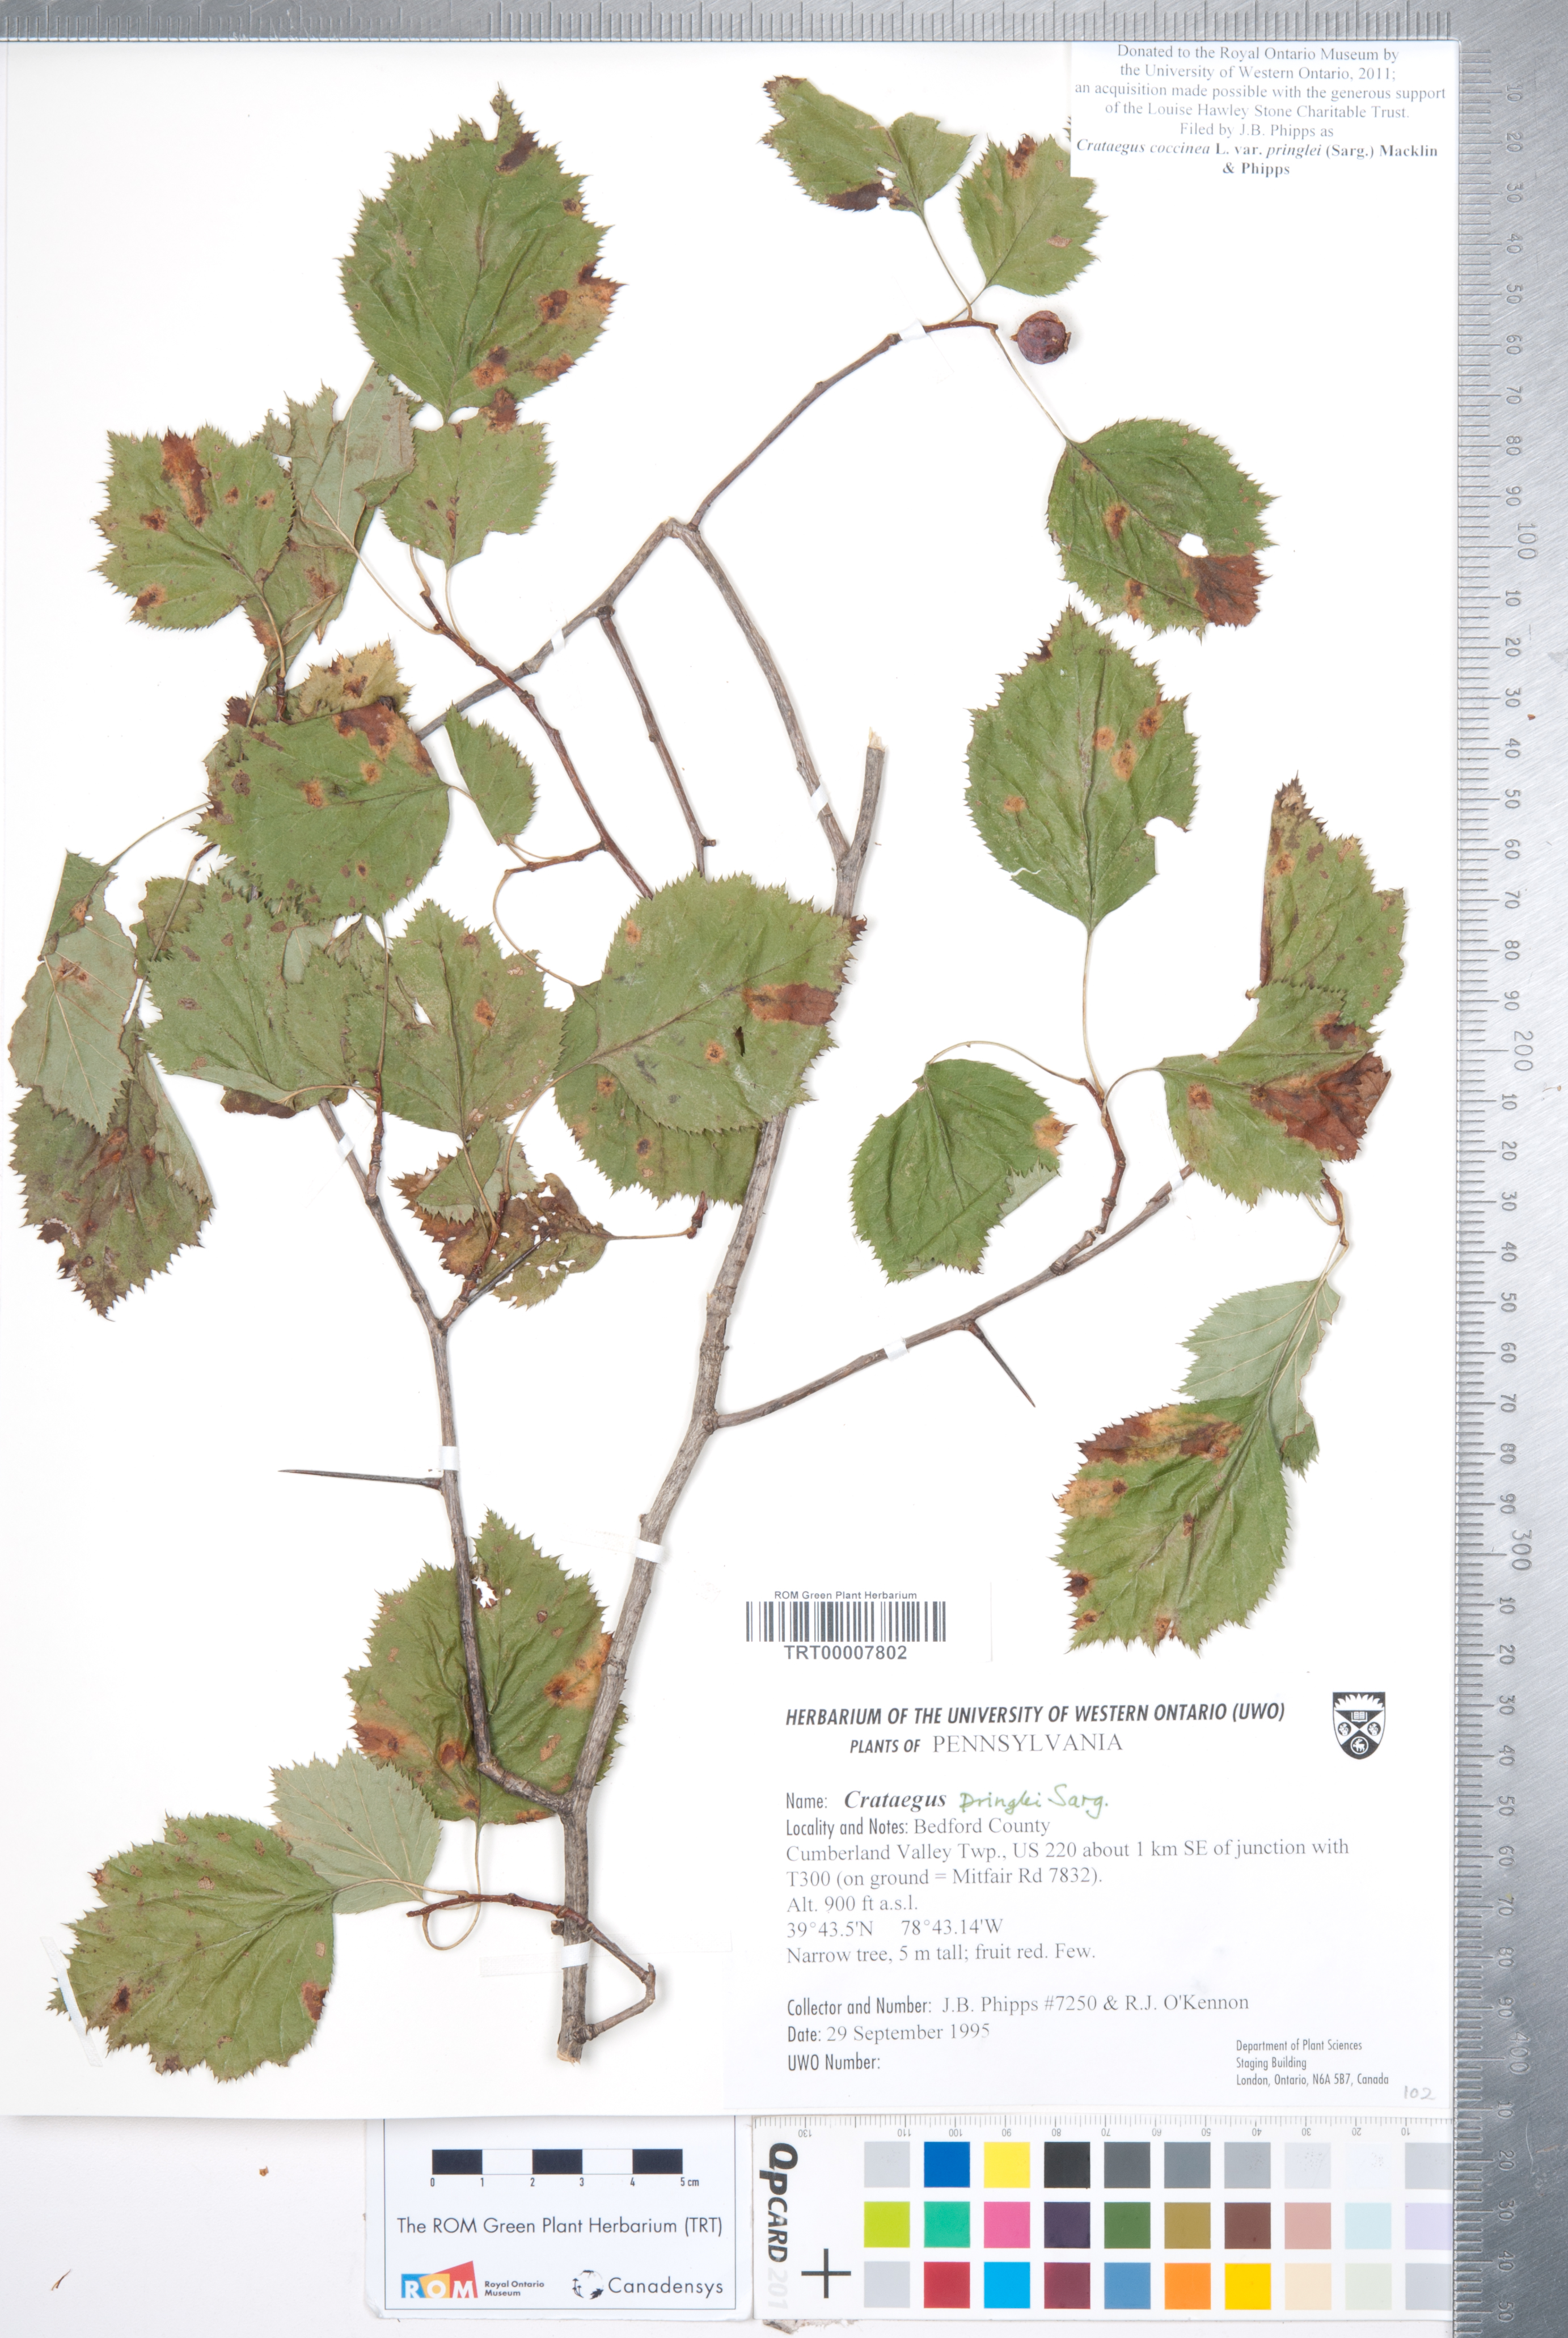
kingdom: Plantae
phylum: Tracheophyta
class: Magnoliopsida
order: Rosales
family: Rosaceae
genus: Crataegus
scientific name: Crataegus coccinea
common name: Scarlet hawthorn
